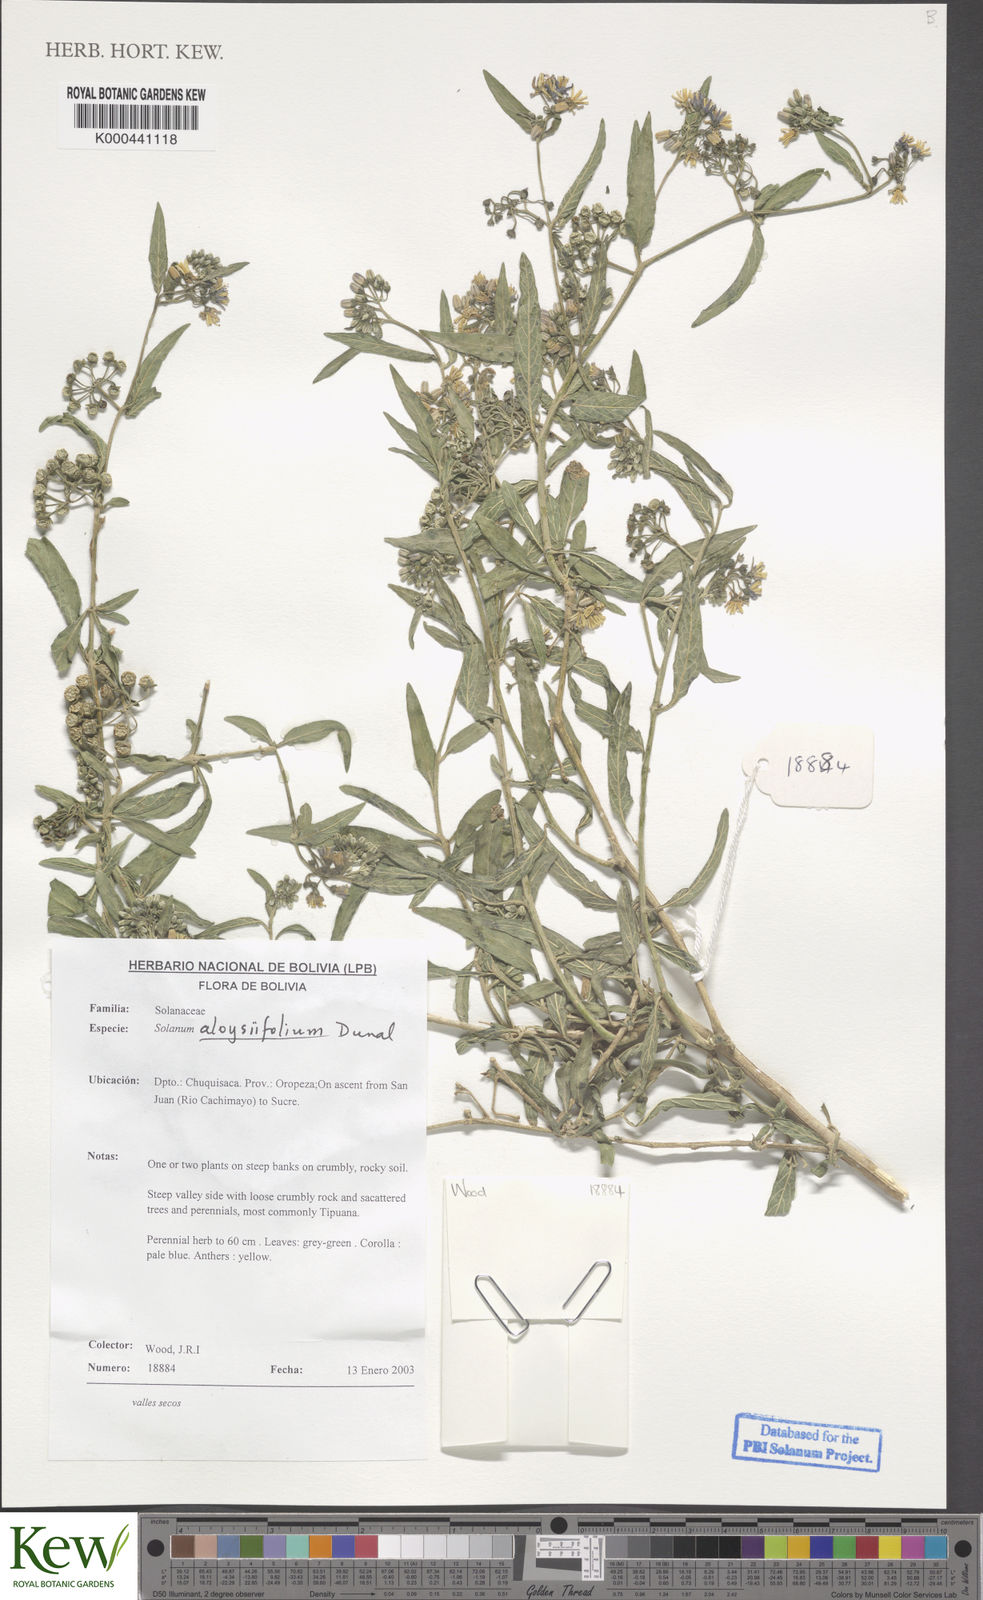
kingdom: Plantae
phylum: Tracheophyta
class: Magnoliopsida
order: Solanales
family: Solanaceae
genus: Solanum
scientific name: Solanum aloysiifolium
